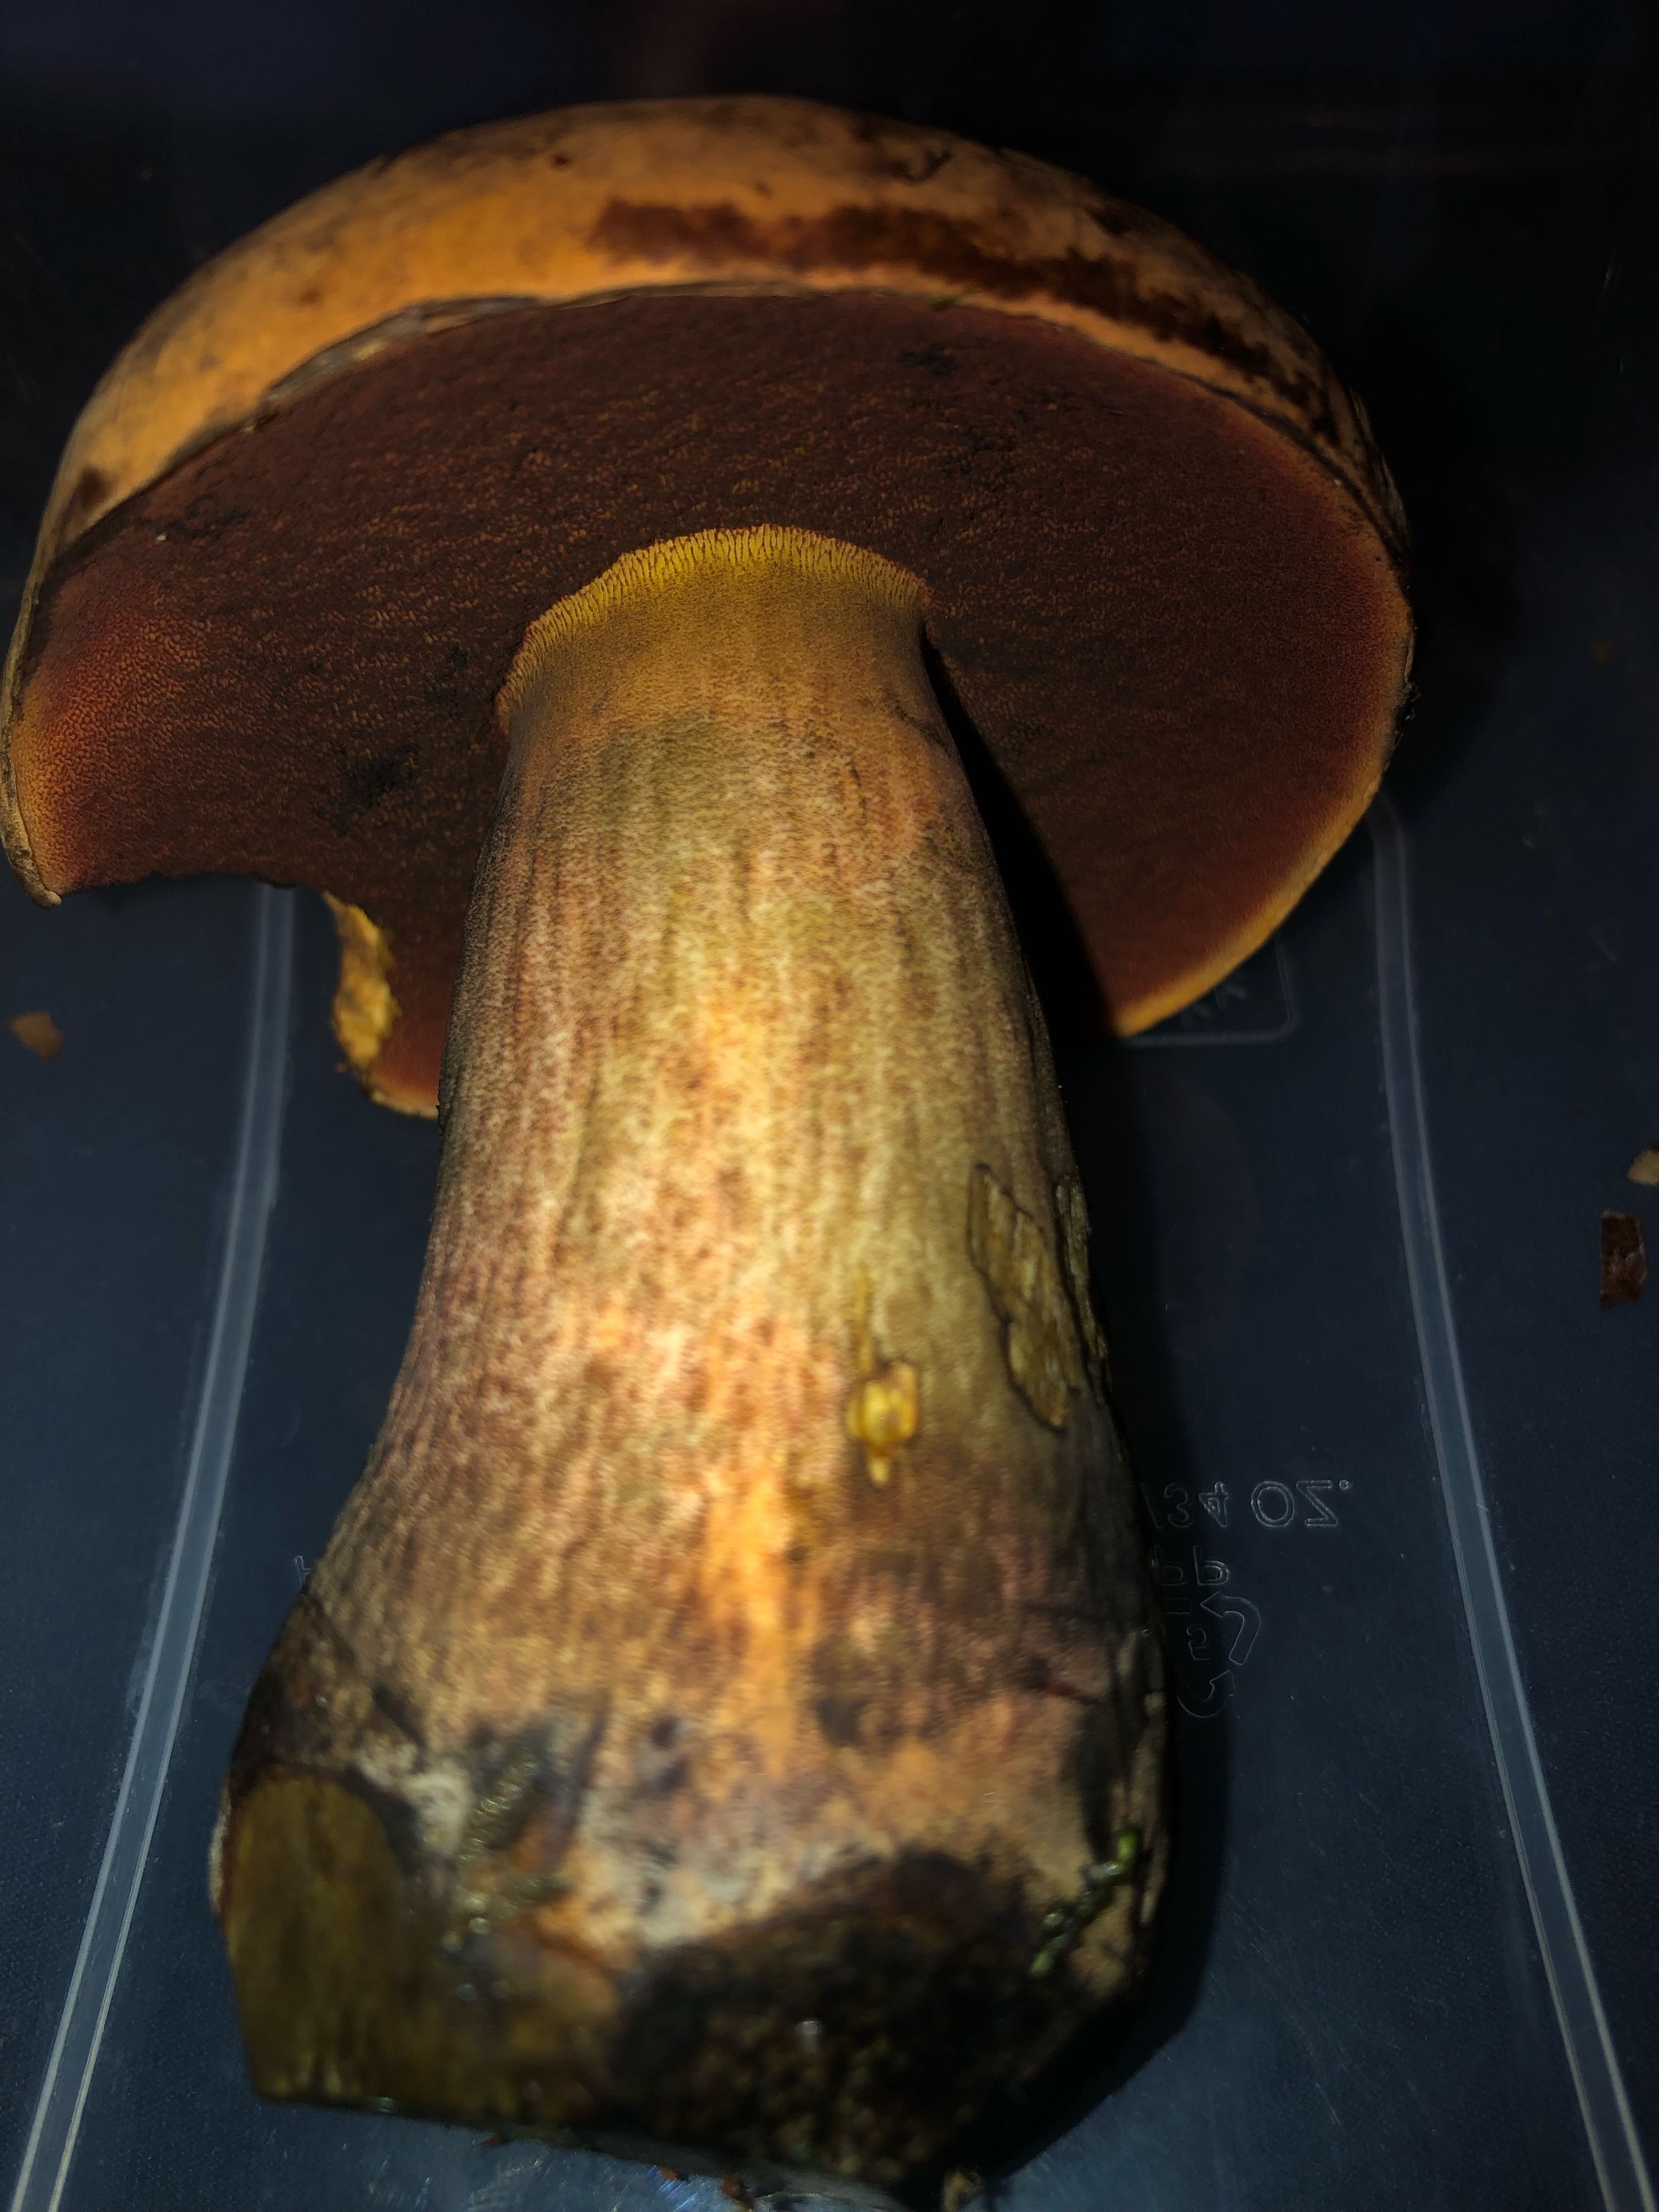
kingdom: Fungi
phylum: Basidiomycota
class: Agaricomycetes
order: Boletales
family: Boletaceae
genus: Neoboletus
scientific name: Neoboletus erythropus
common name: punktstokket indigorørhat
